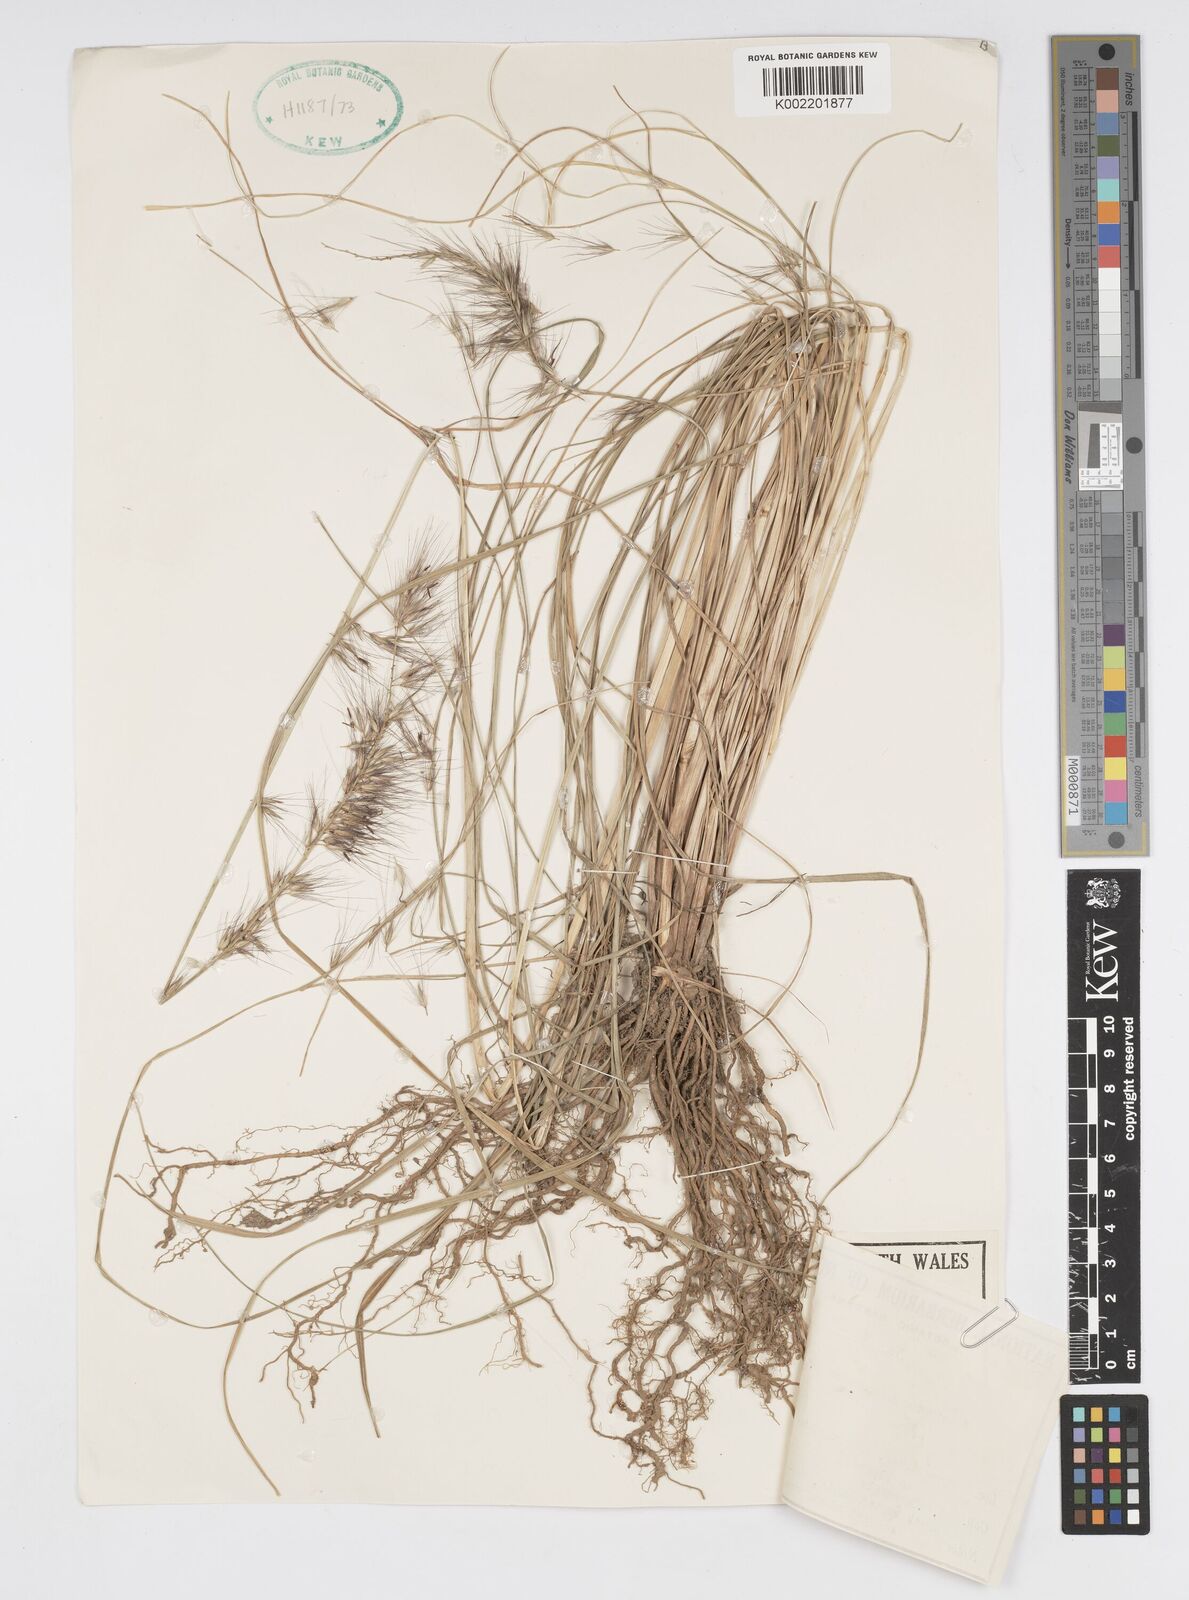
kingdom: Plantae
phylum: Tracheophyta
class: Liliopsida
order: Poales
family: Poaceae
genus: Cenchrus
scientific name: Cenchrus alopecuroides
